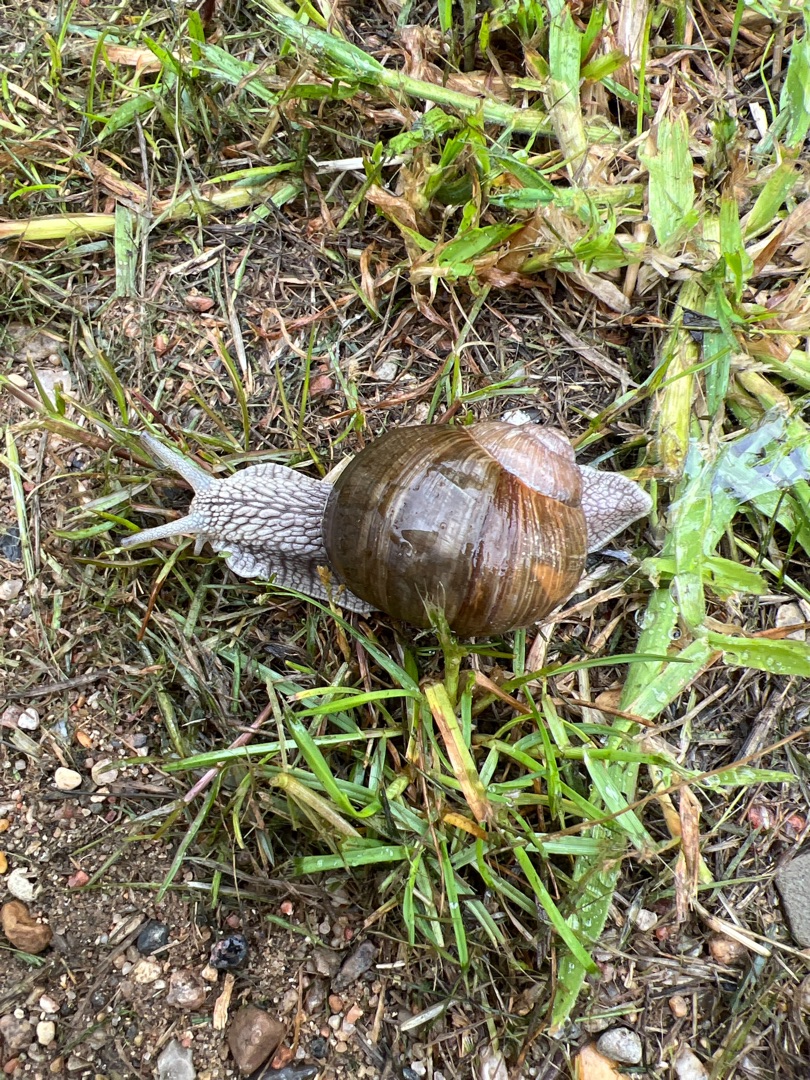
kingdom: Animalia
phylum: Mollusca
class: Gastropoda
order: Stylommatophora
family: Helicidae
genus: Helix
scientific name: Helix pomatia
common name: Vinbjergsnegl
